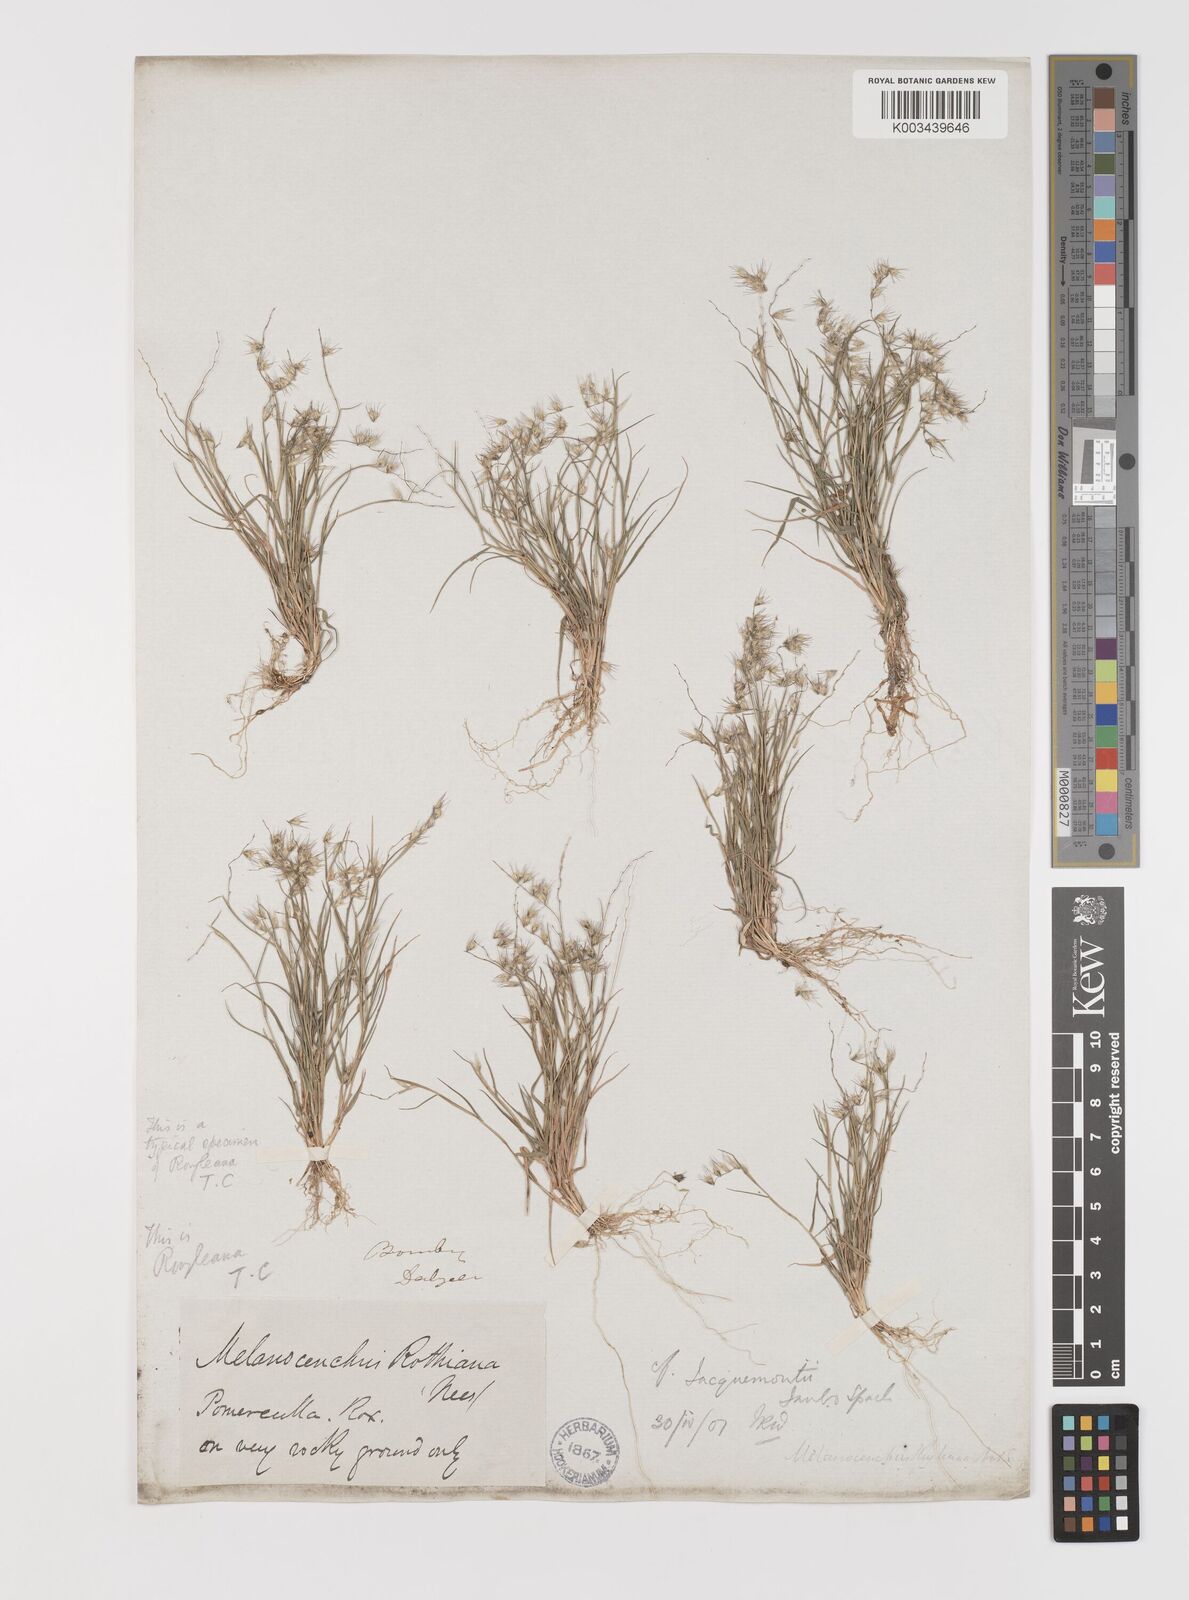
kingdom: Plantae
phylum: Tracheophyta
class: Liliopsida
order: Poales
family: Poaceae
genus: Melanocenchris
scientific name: Melanocenchris jacquemontii
